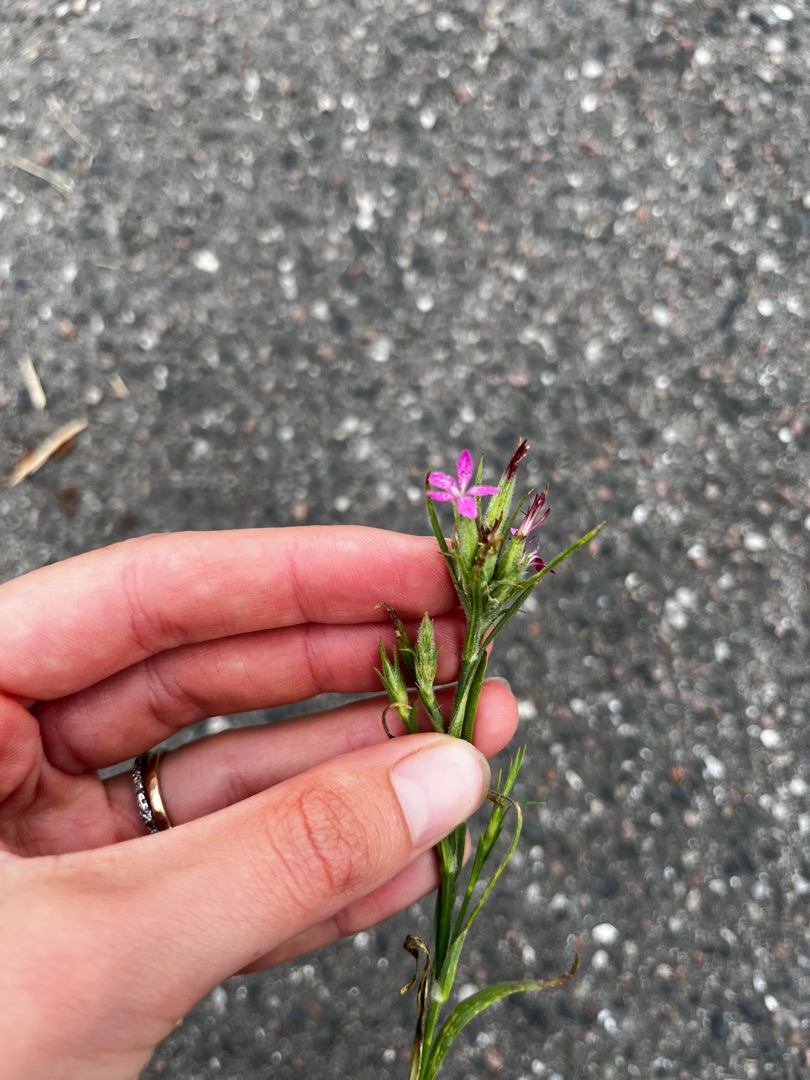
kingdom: Plantae
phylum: Tracheophyta
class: Magnoliopsida
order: Caryophyllales
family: Caryophyllaceae
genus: Dianthus
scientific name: Dianthus armeria
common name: Kost-nellike
